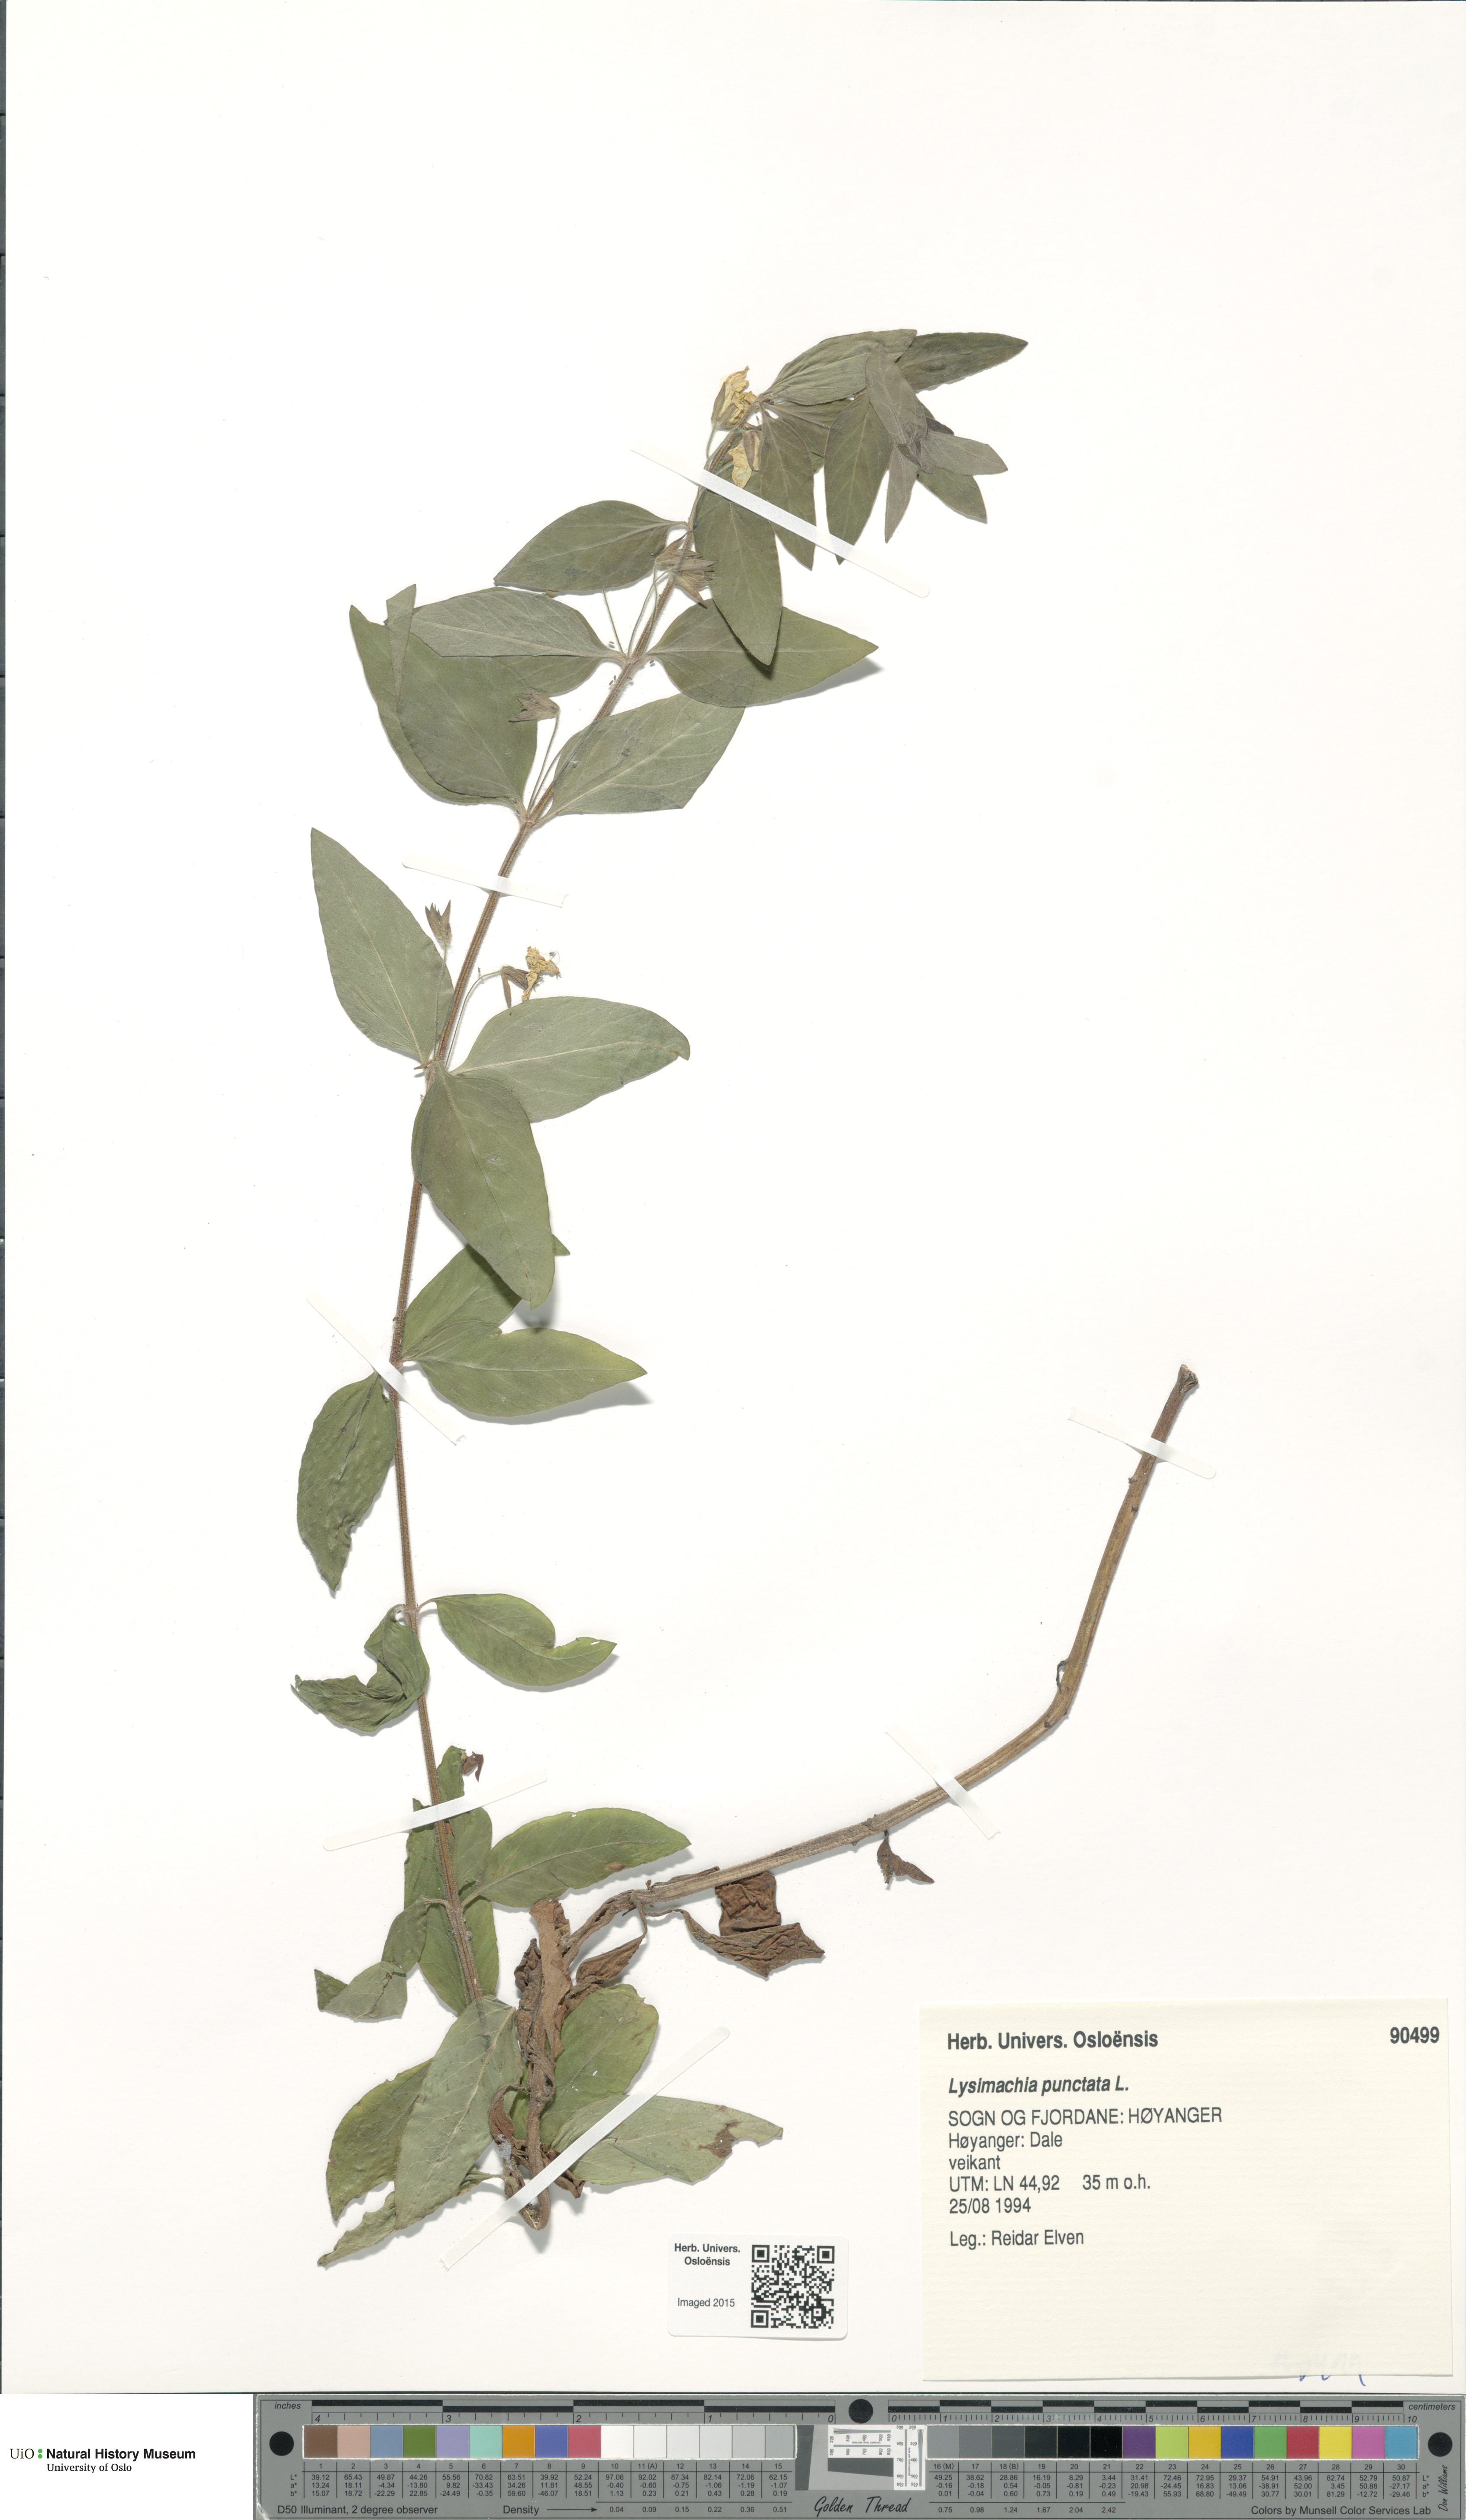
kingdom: Plantae
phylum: Tracheophyta
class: Magnoliopsida
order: Ericales
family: Primulaceae
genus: Lysimachia
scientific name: Lysimachia punctata
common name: Dotted loosestrife
